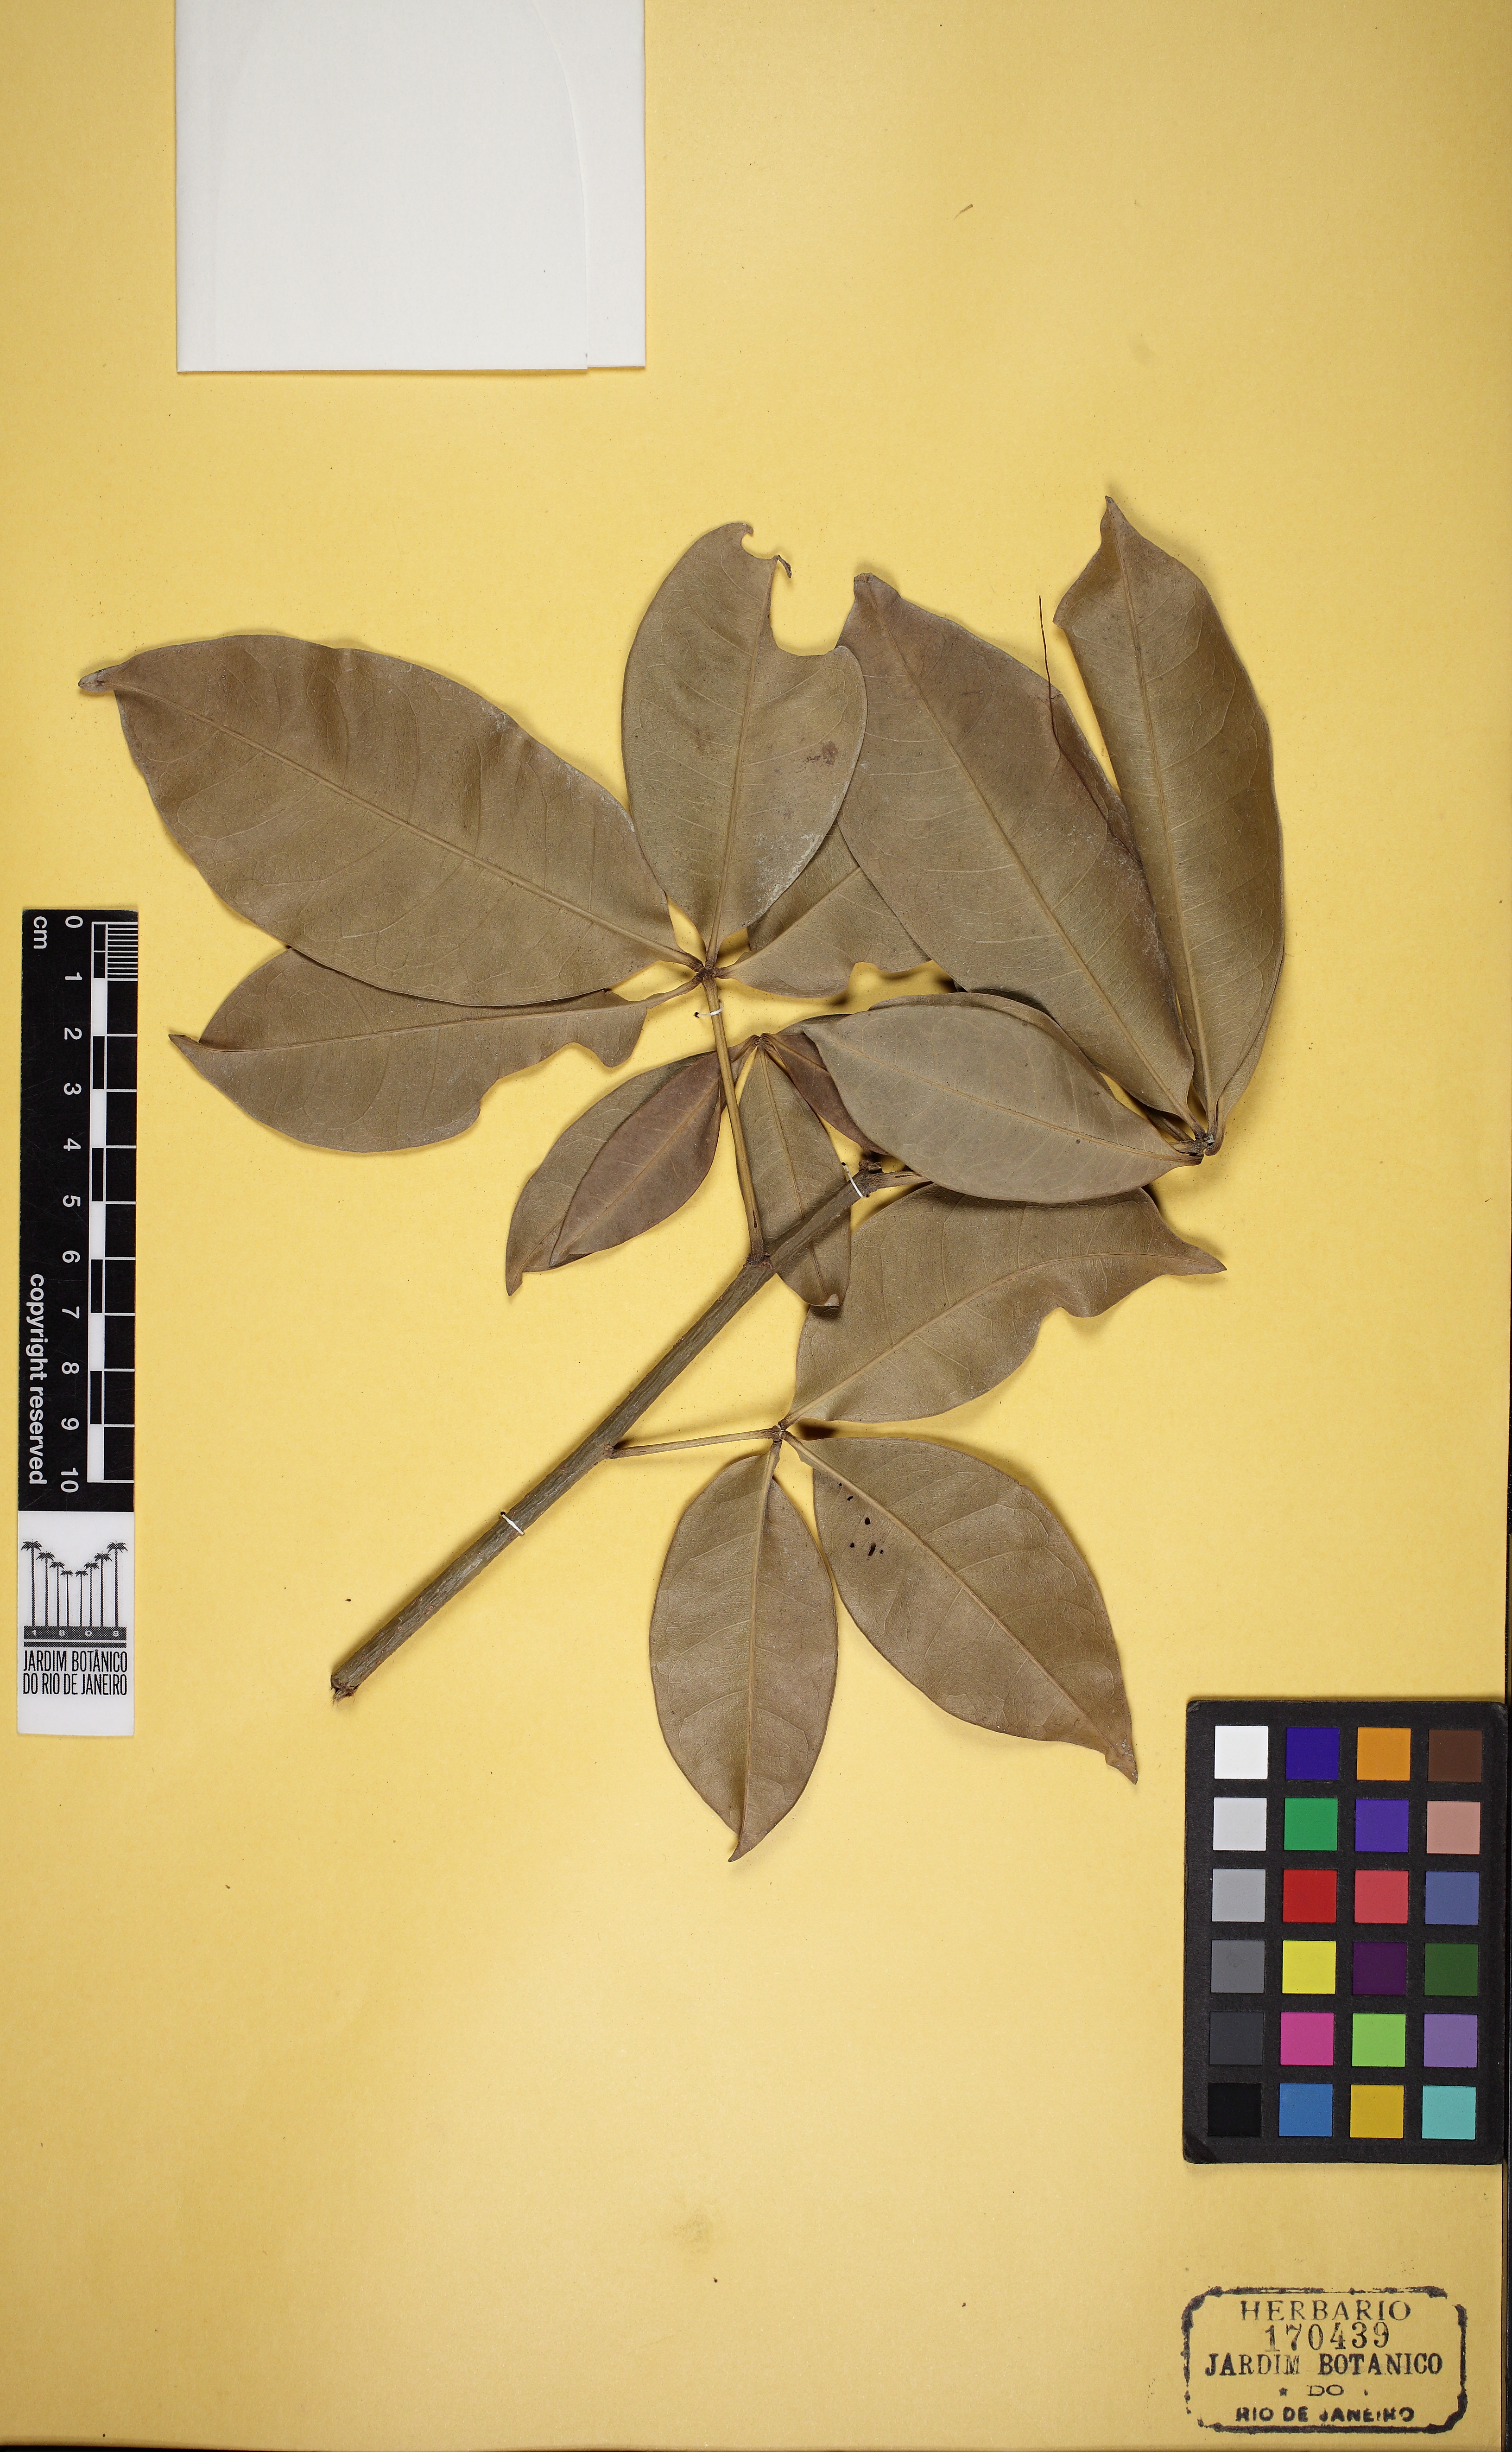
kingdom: Plantae
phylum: Tracheophyta
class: Magnoliopsida
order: Malvales
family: Malvaceae
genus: Pachira
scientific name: Pachira aquatica
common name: Provision-tree
